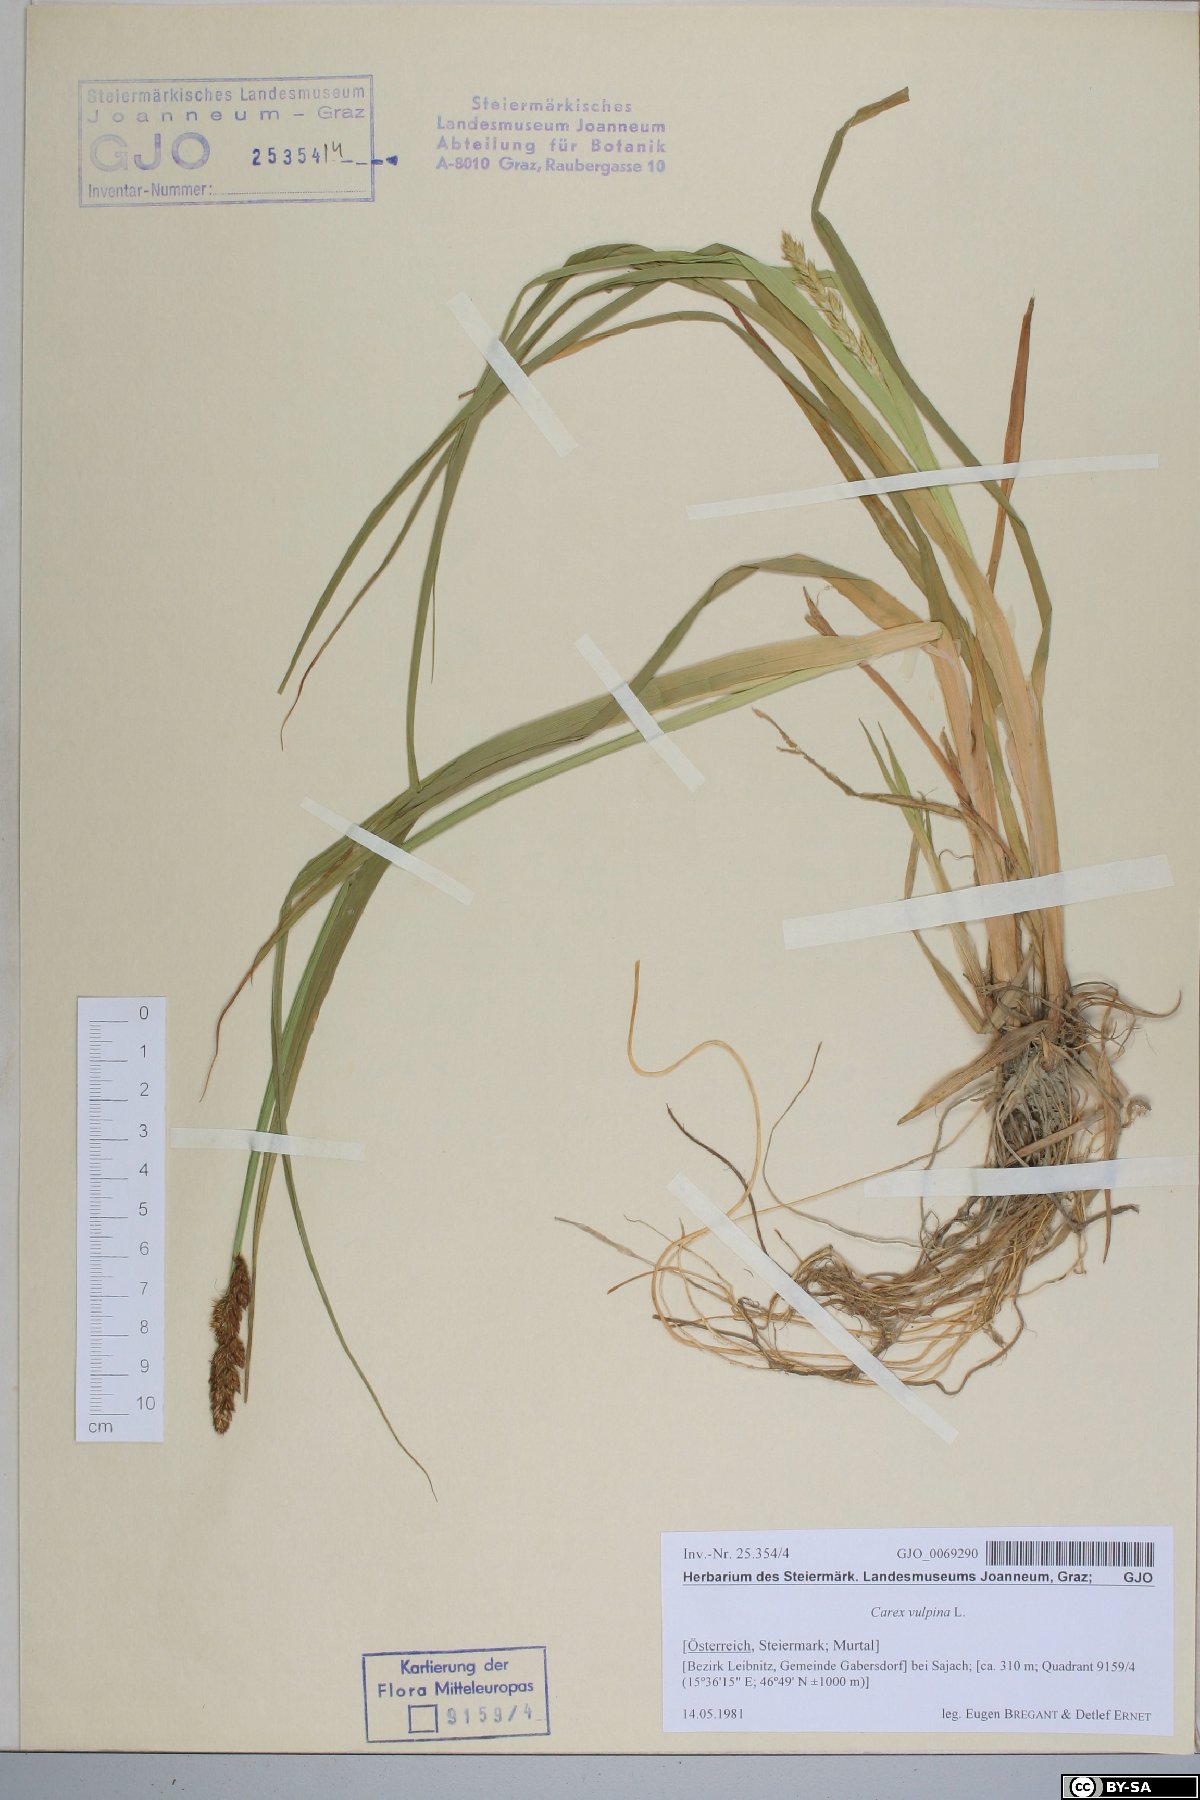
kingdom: Plantae
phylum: Tracheophyta
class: Liliopsida
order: Poales
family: Cyperaceae
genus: Carex
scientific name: Carex vulpina
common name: True fox-sedge
